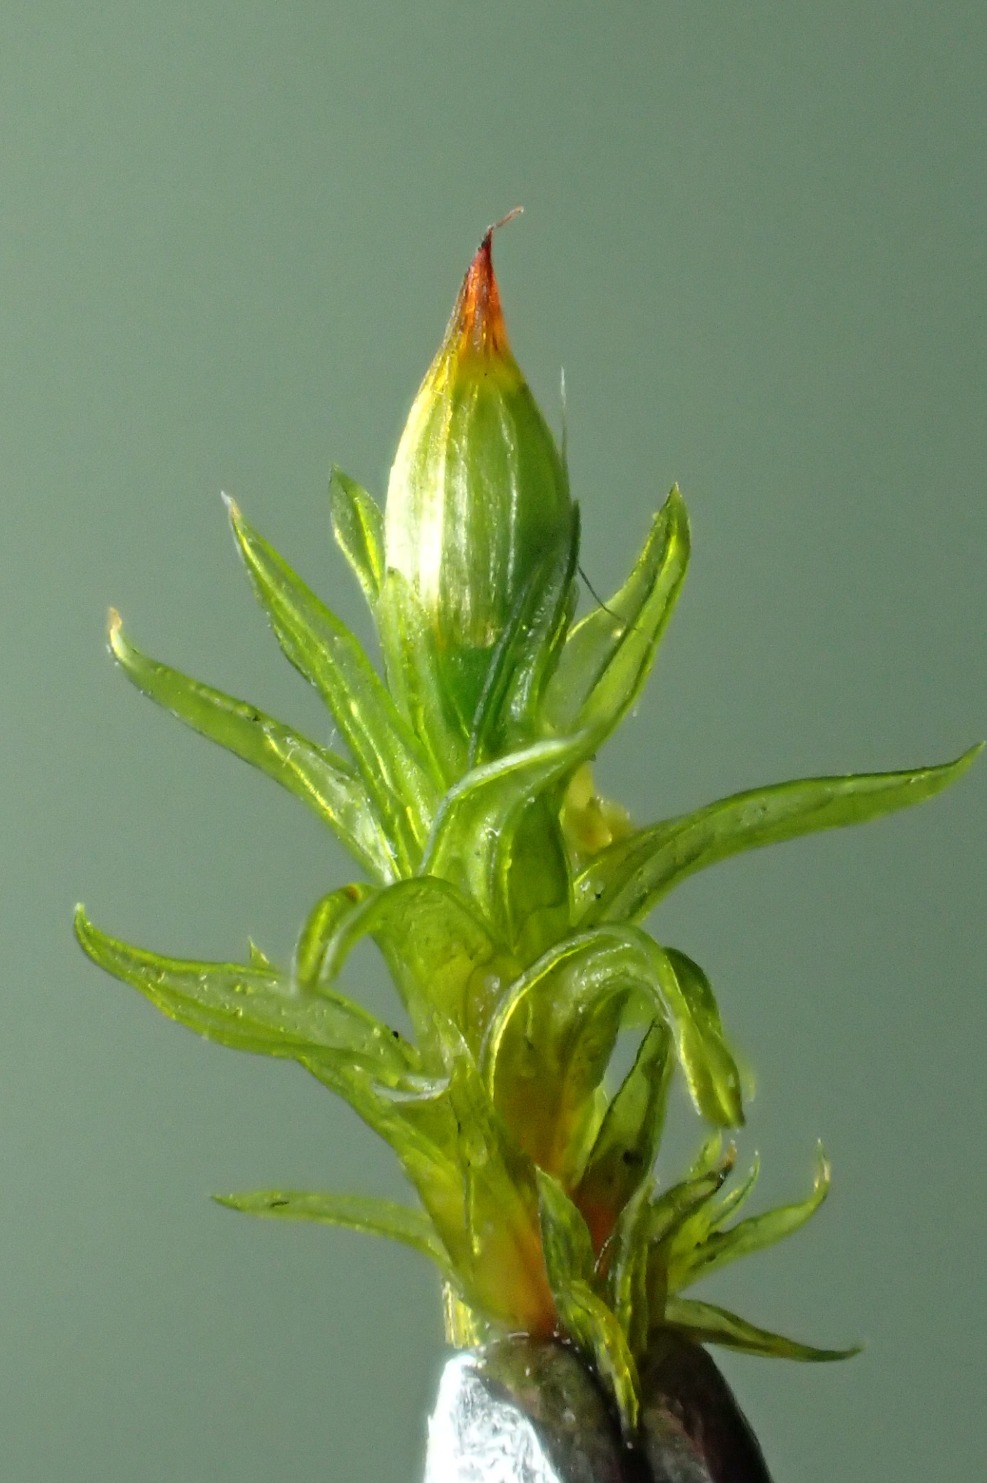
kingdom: Plantae
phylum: Bryophyta
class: Bryopsida
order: Orthotrichales
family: Orthotrichaceae
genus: Orthotrichum
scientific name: Orthotrichum stramineum
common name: Strågul furehætte
